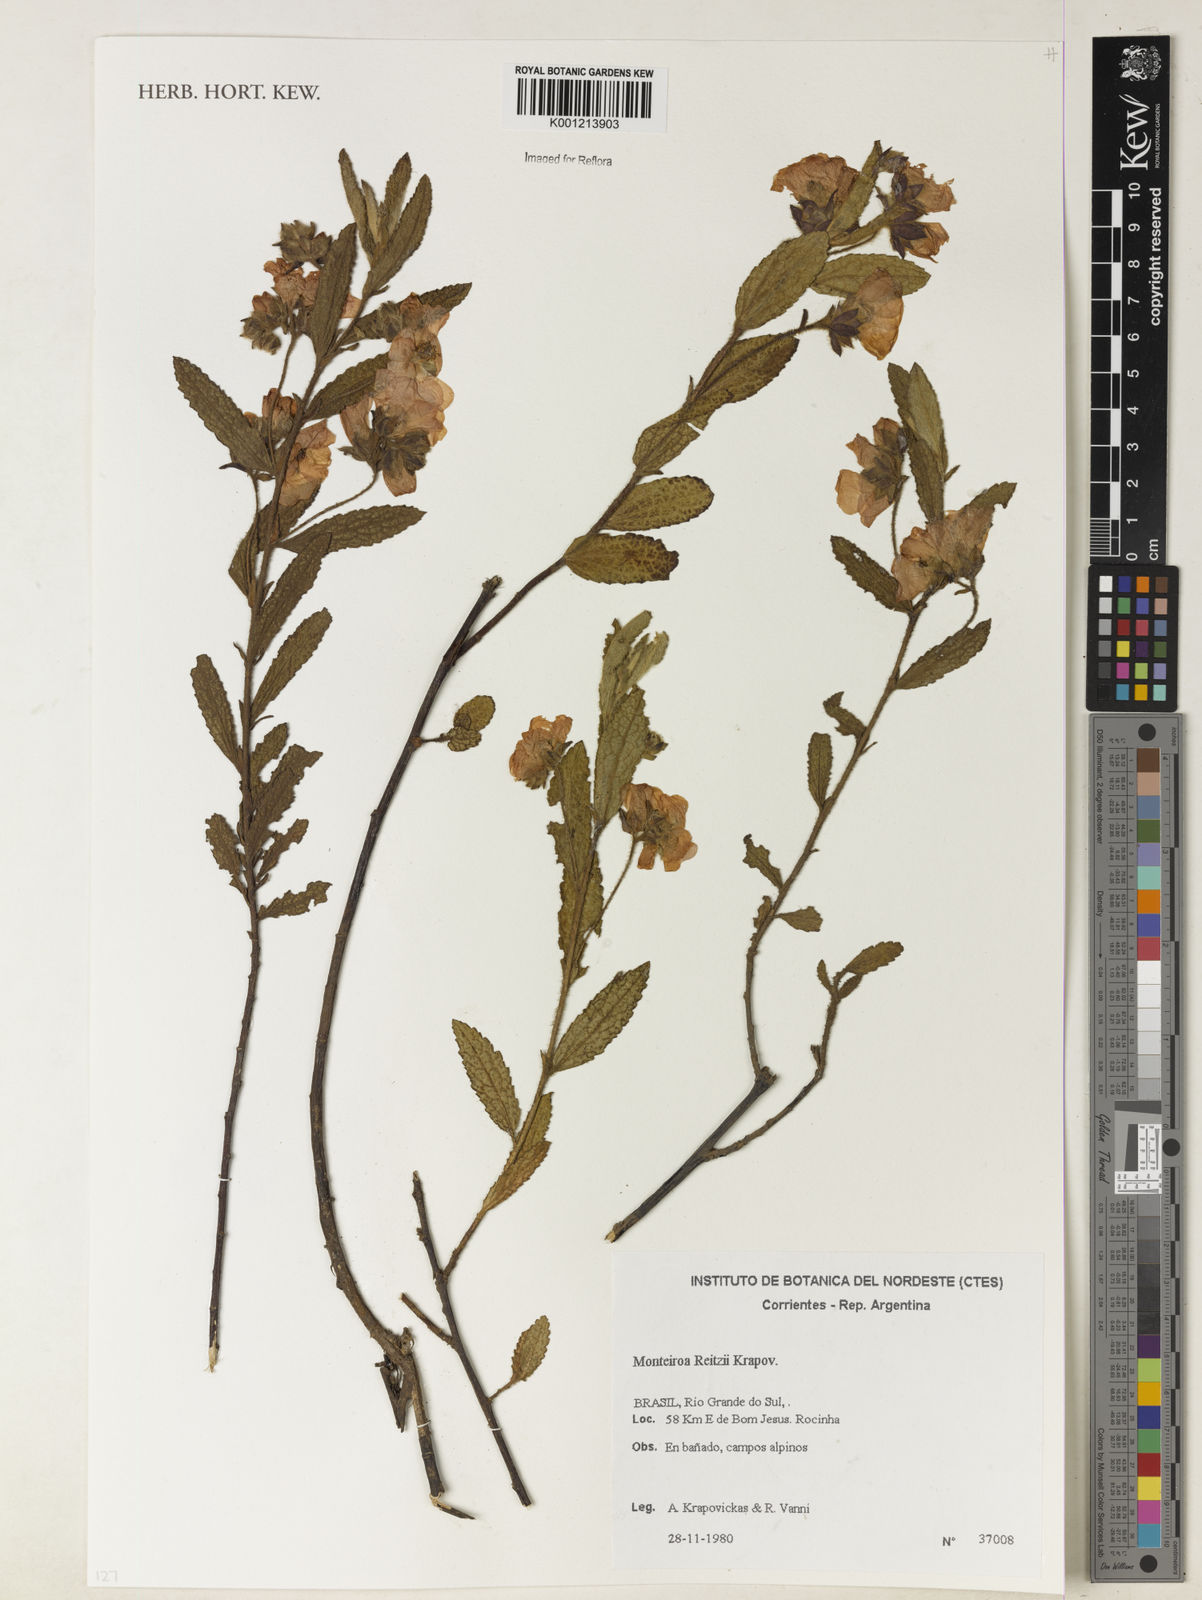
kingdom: Plantae
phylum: Tracheophyta
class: Magnoliopsida
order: Malvales
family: Malvaceae
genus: Monteiroa
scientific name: Monteiroa reitzii
